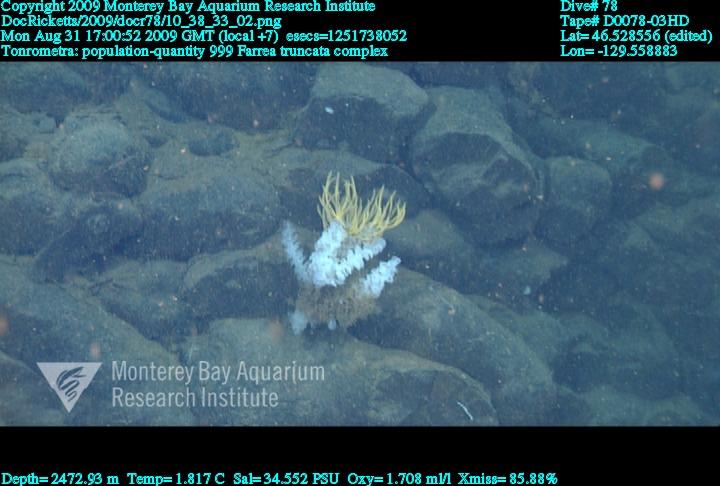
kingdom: Animalia
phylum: Porifera
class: Hexactinellida
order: Sceptrulophora
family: Farreidae
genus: Farrea
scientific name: Farrea truncata
